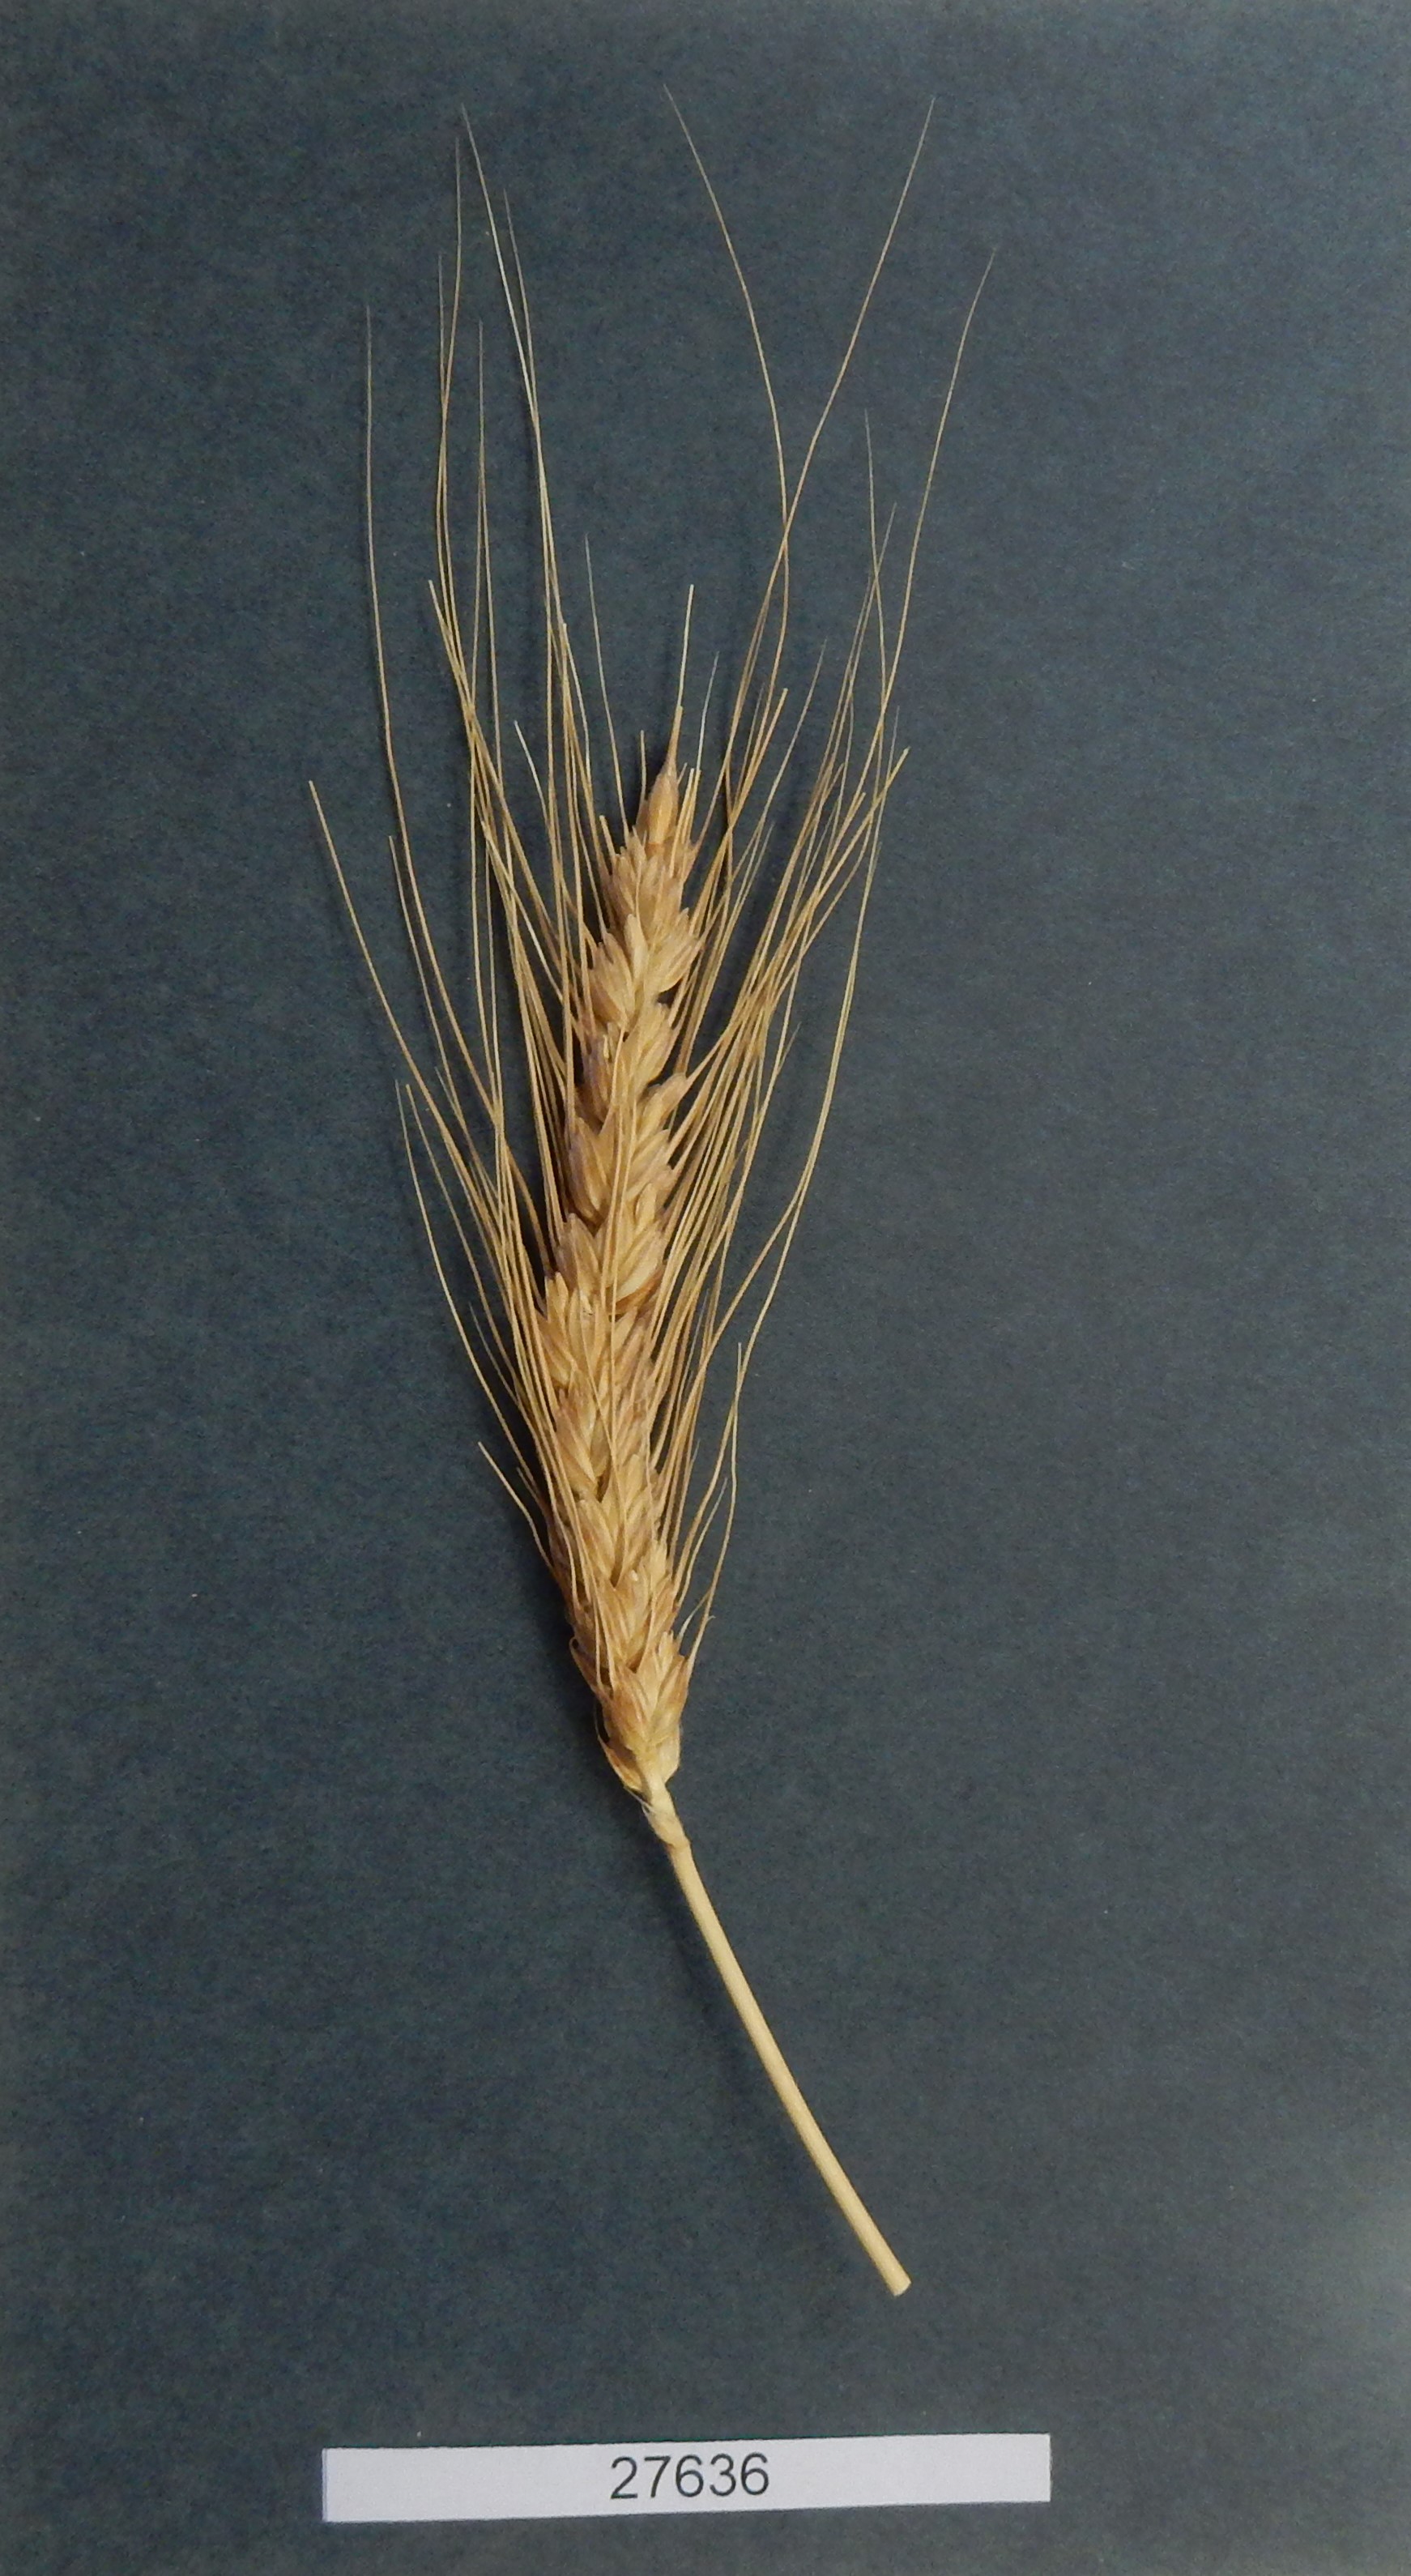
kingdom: Plantae
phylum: Tracheophyta
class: Liliopsida
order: Poales
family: Poaceae
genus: Triticum
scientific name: Triticum aestivum
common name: Common wheat
